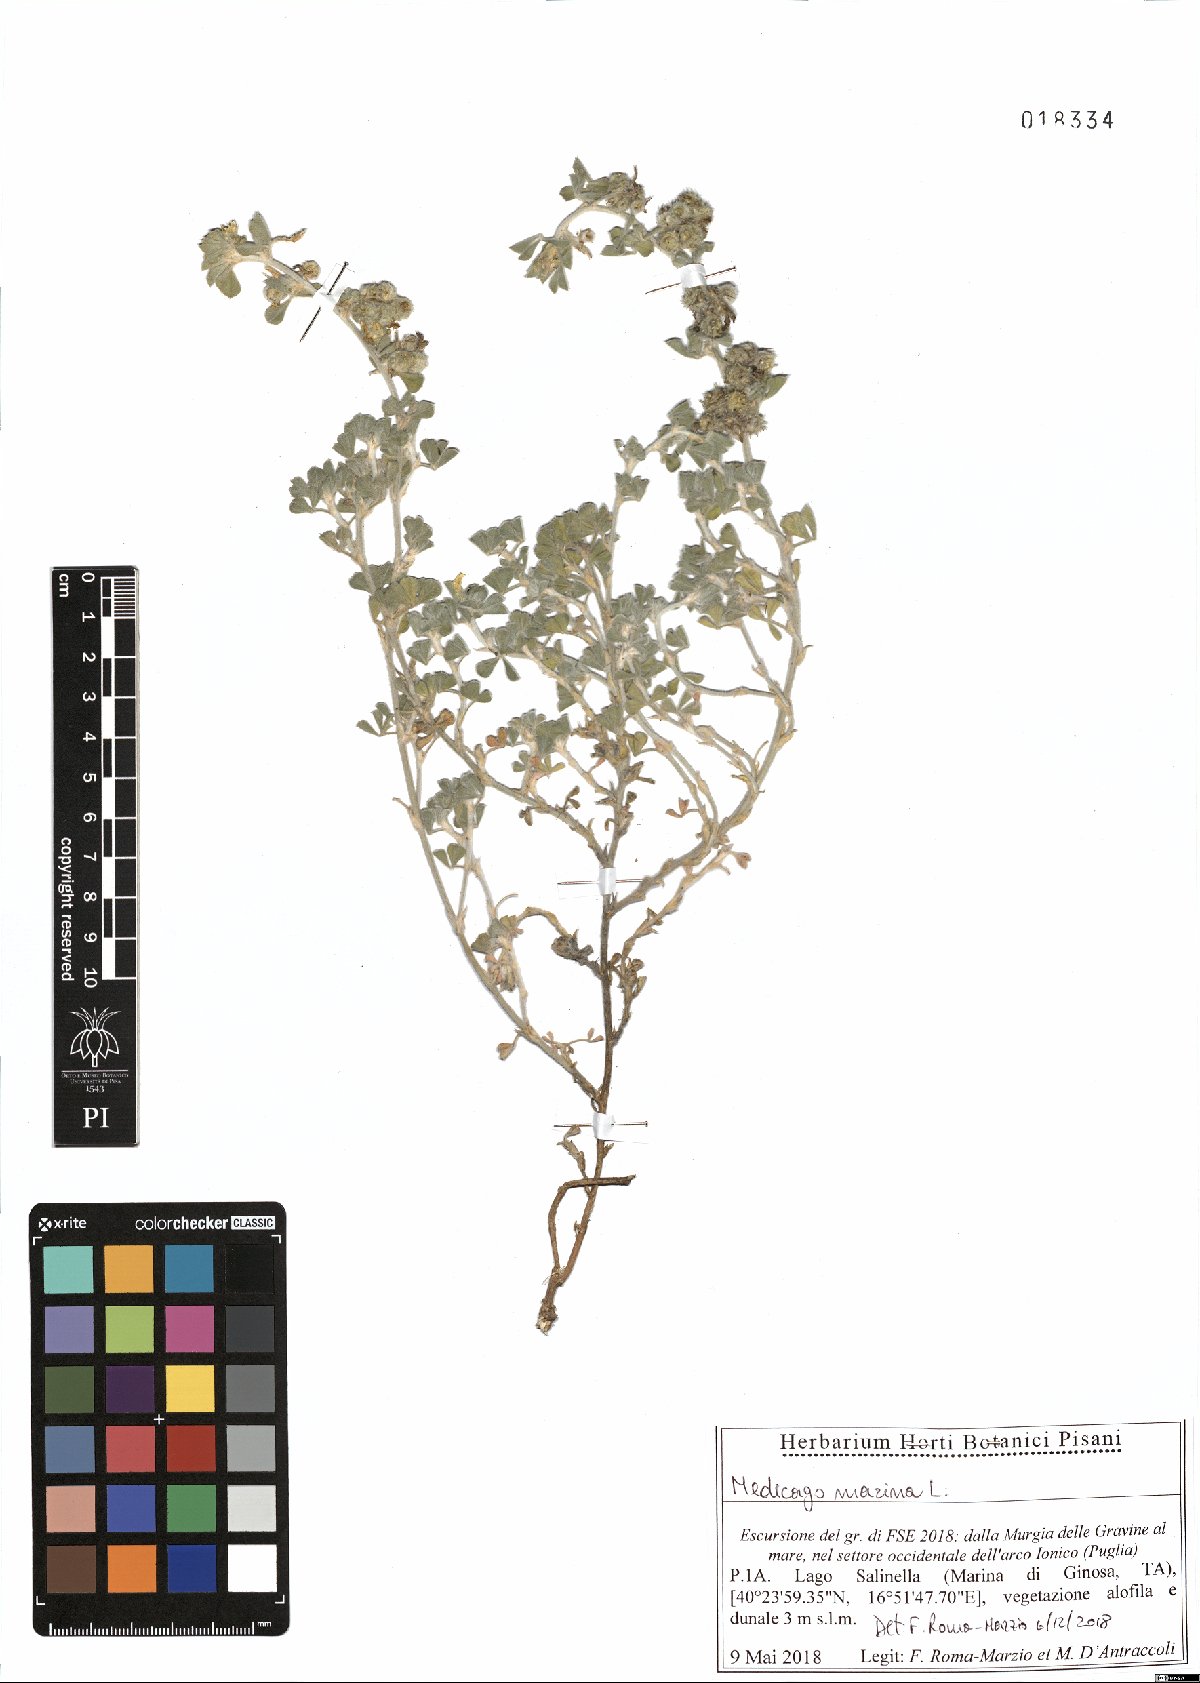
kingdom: Plantae
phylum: Tracheophyta
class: Magnoliopsida
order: Fabales
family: Fabaceae
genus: Medicago
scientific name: Medicago marina
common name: Sea medick
